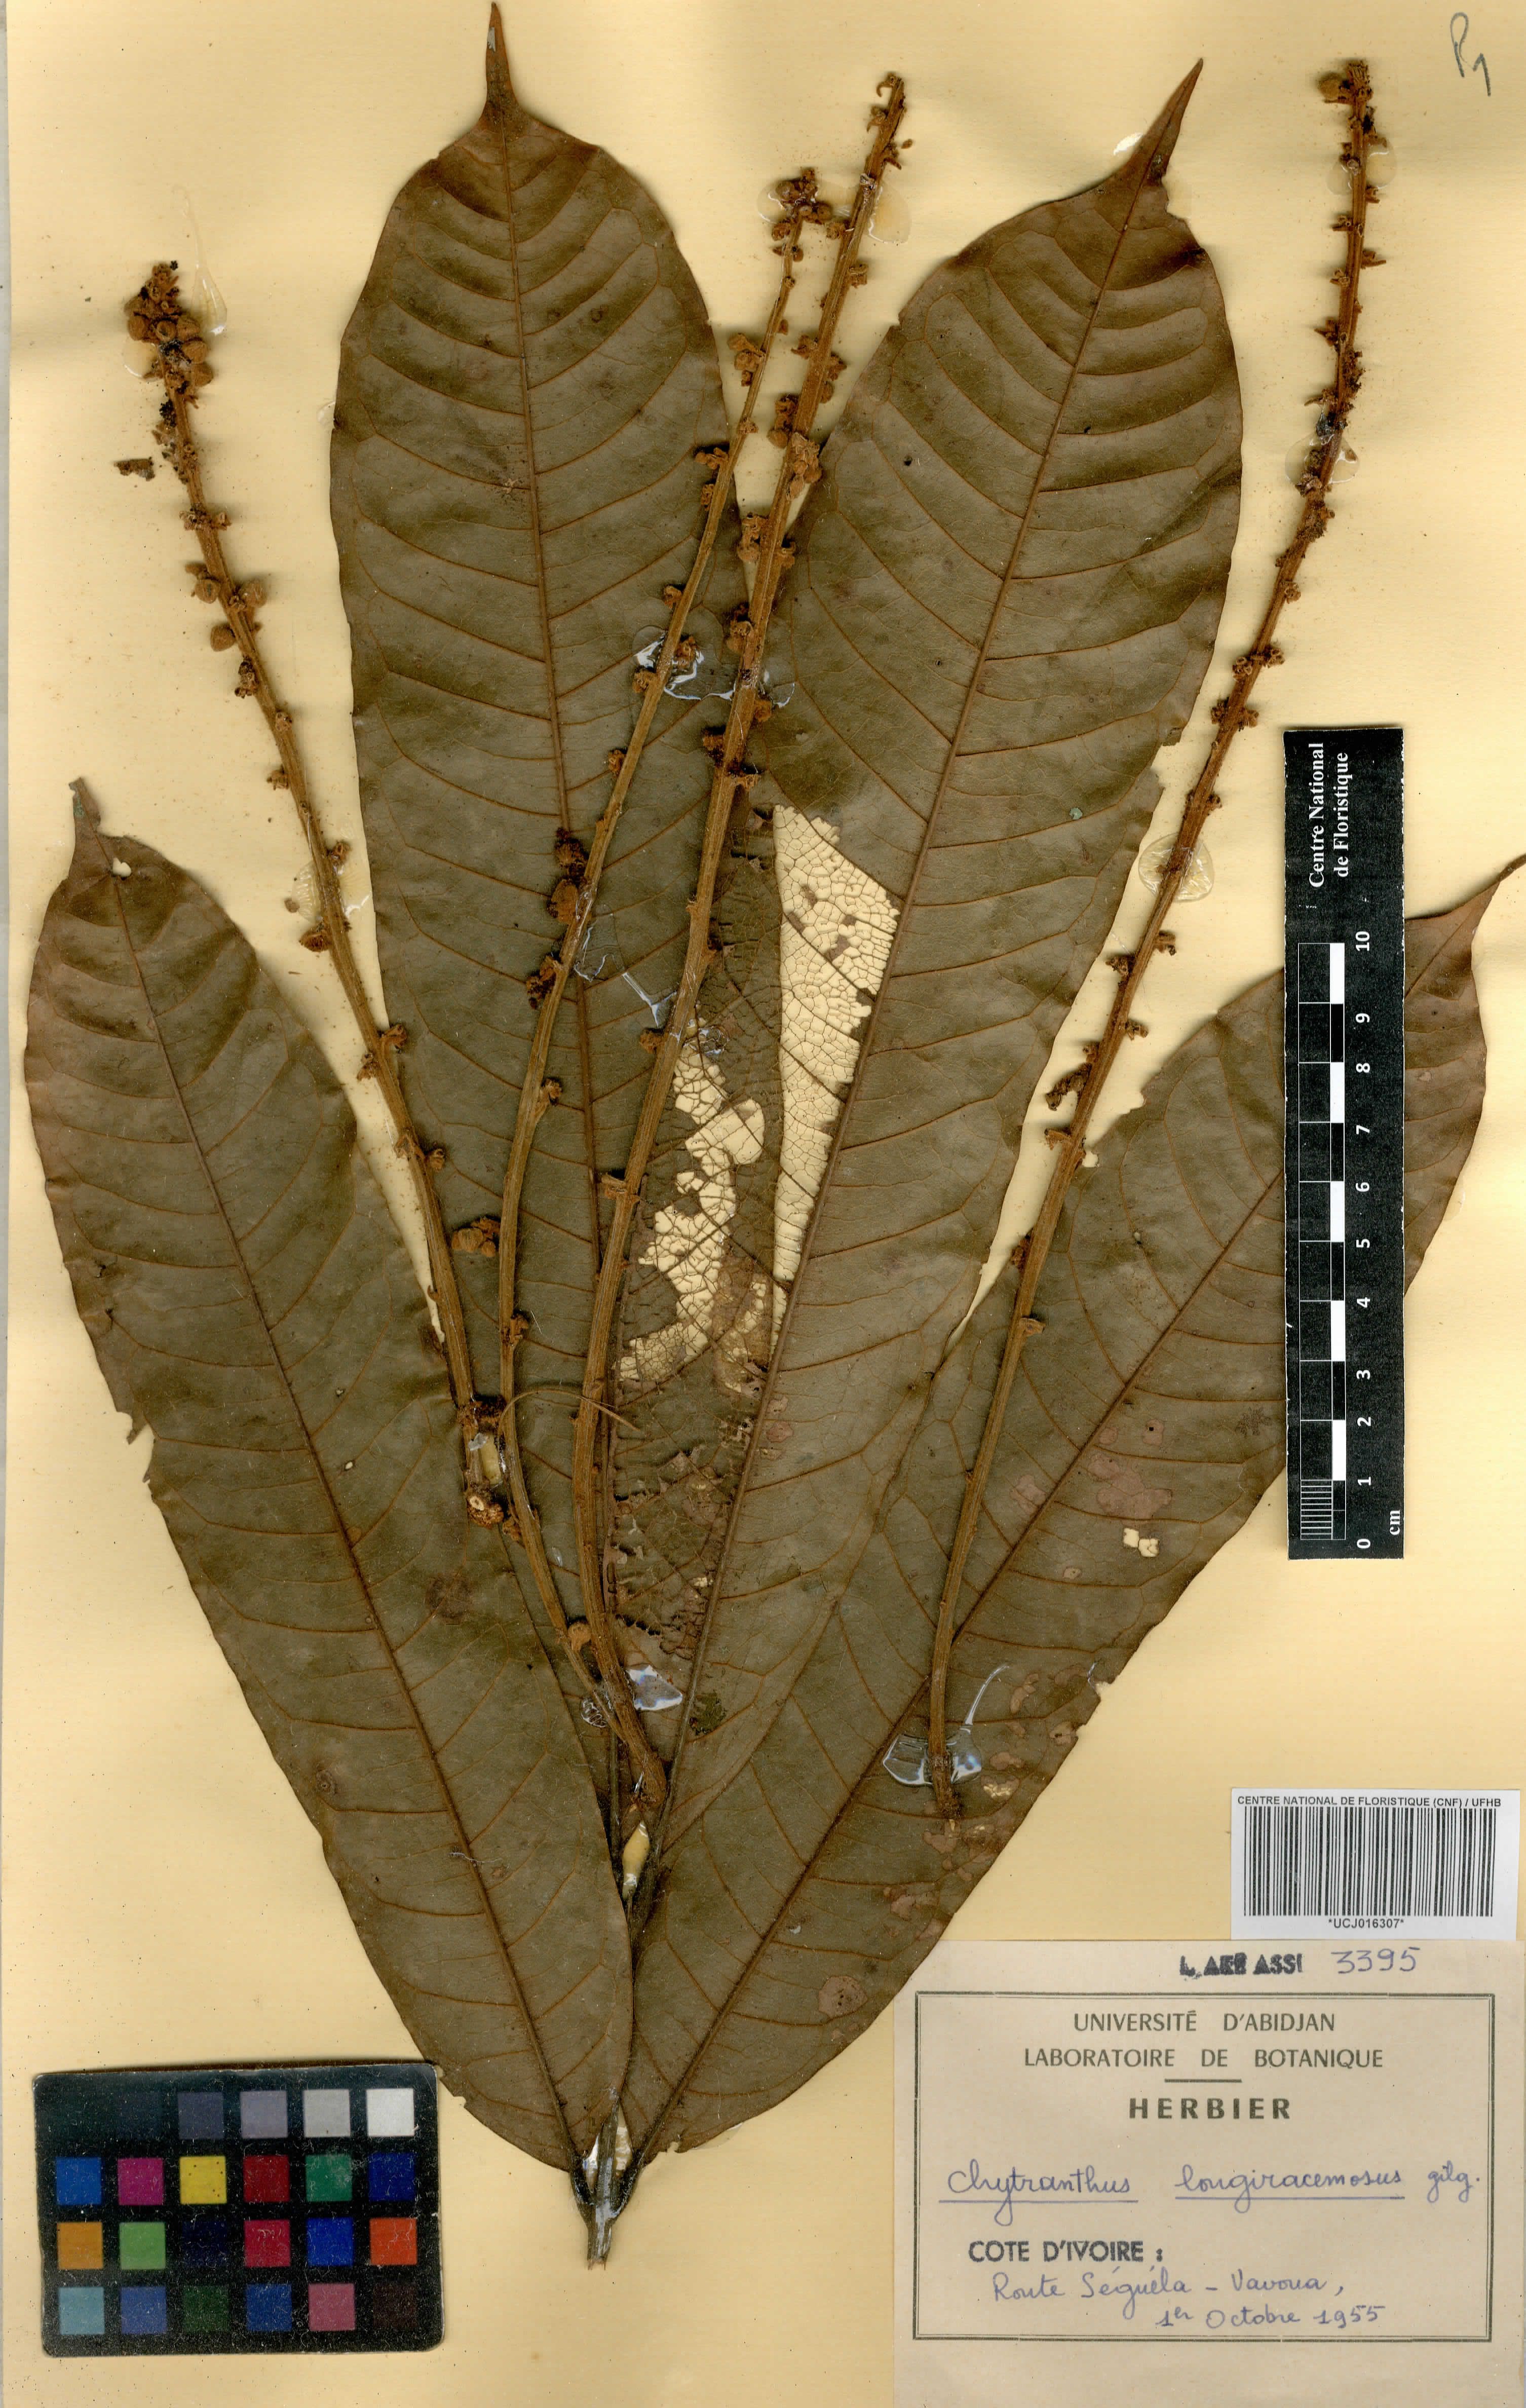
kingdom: Plantae
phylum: Tracheophyta
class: Magnoliopsida
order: Sapindales
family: Sapindaceae
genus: Chytranthus
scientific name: Chytranthus carneus
